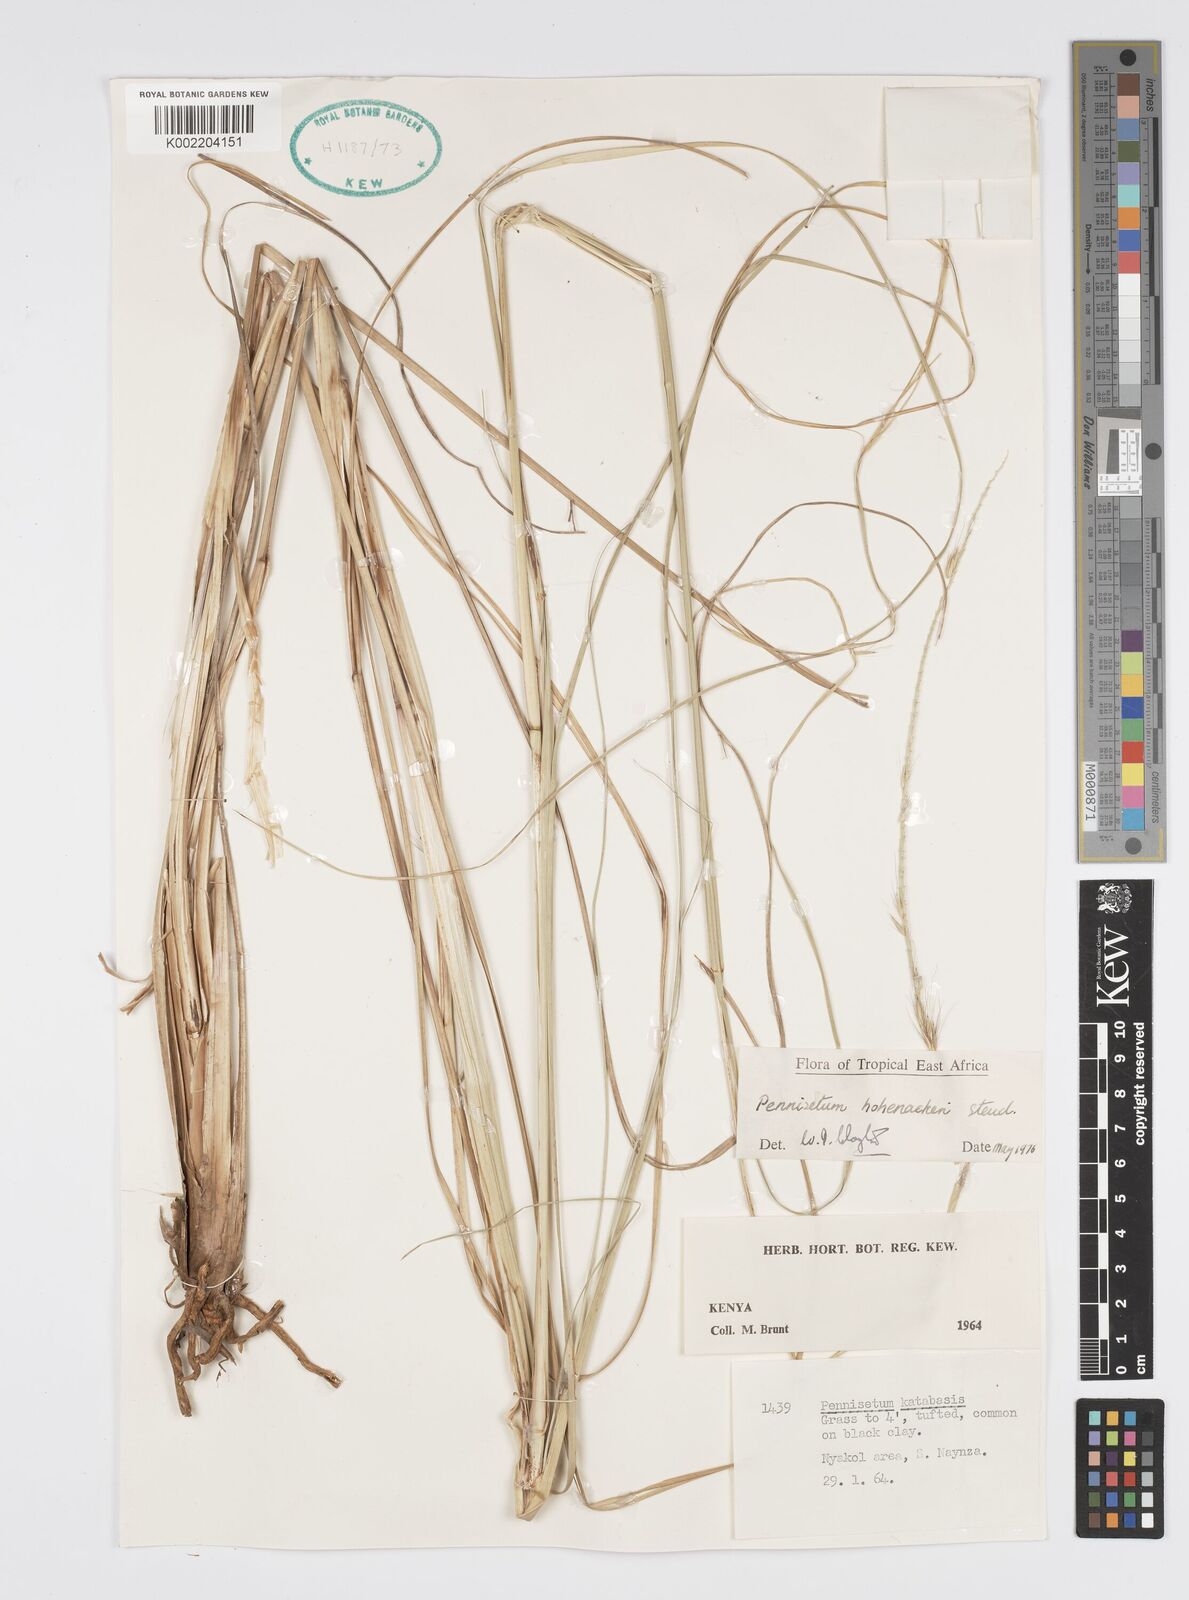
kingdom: Plantae
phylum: Tracheophyta
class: Liliopsida
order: Poales
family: Poaceae
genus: Cenchrus
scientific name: Cenchrus hohenackeri
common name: Moya grass
